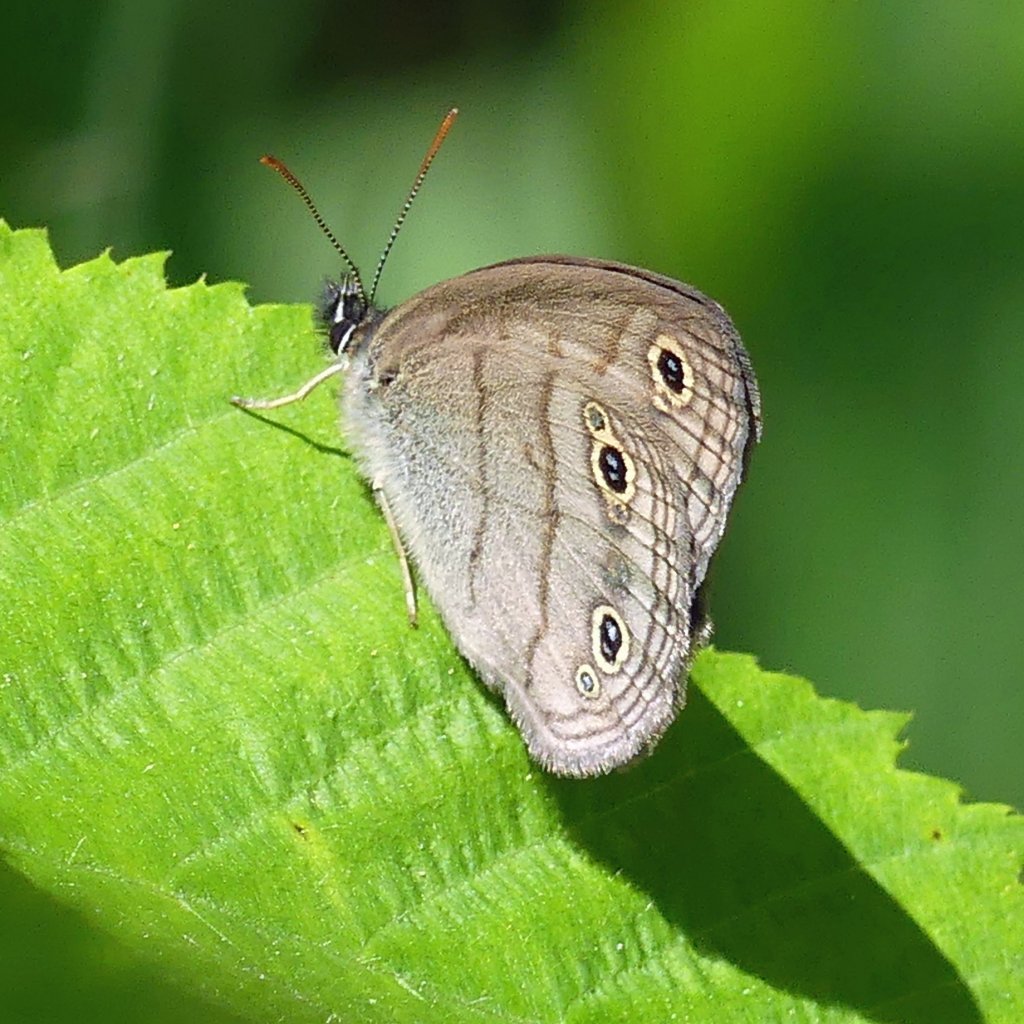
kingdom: Animalia
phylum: Arthropoda
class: Insecta
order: Lepidoptera
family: Nymphalidae
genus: Euptychia
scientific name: Euptychia cymela
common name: Little Wood Satyr
